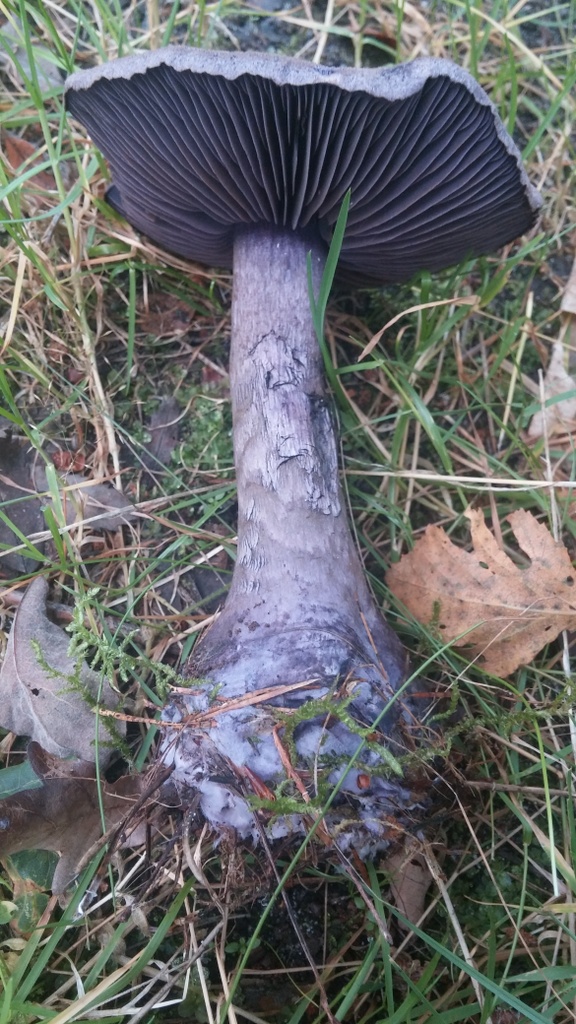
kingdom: Fungi
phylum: Basidiomycota
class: Agaricomycetes
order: Agaricales
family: Cortinariaceae
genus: Cortinarius
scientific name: Cortinarius violaceus
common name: mørkviolet slørhat
